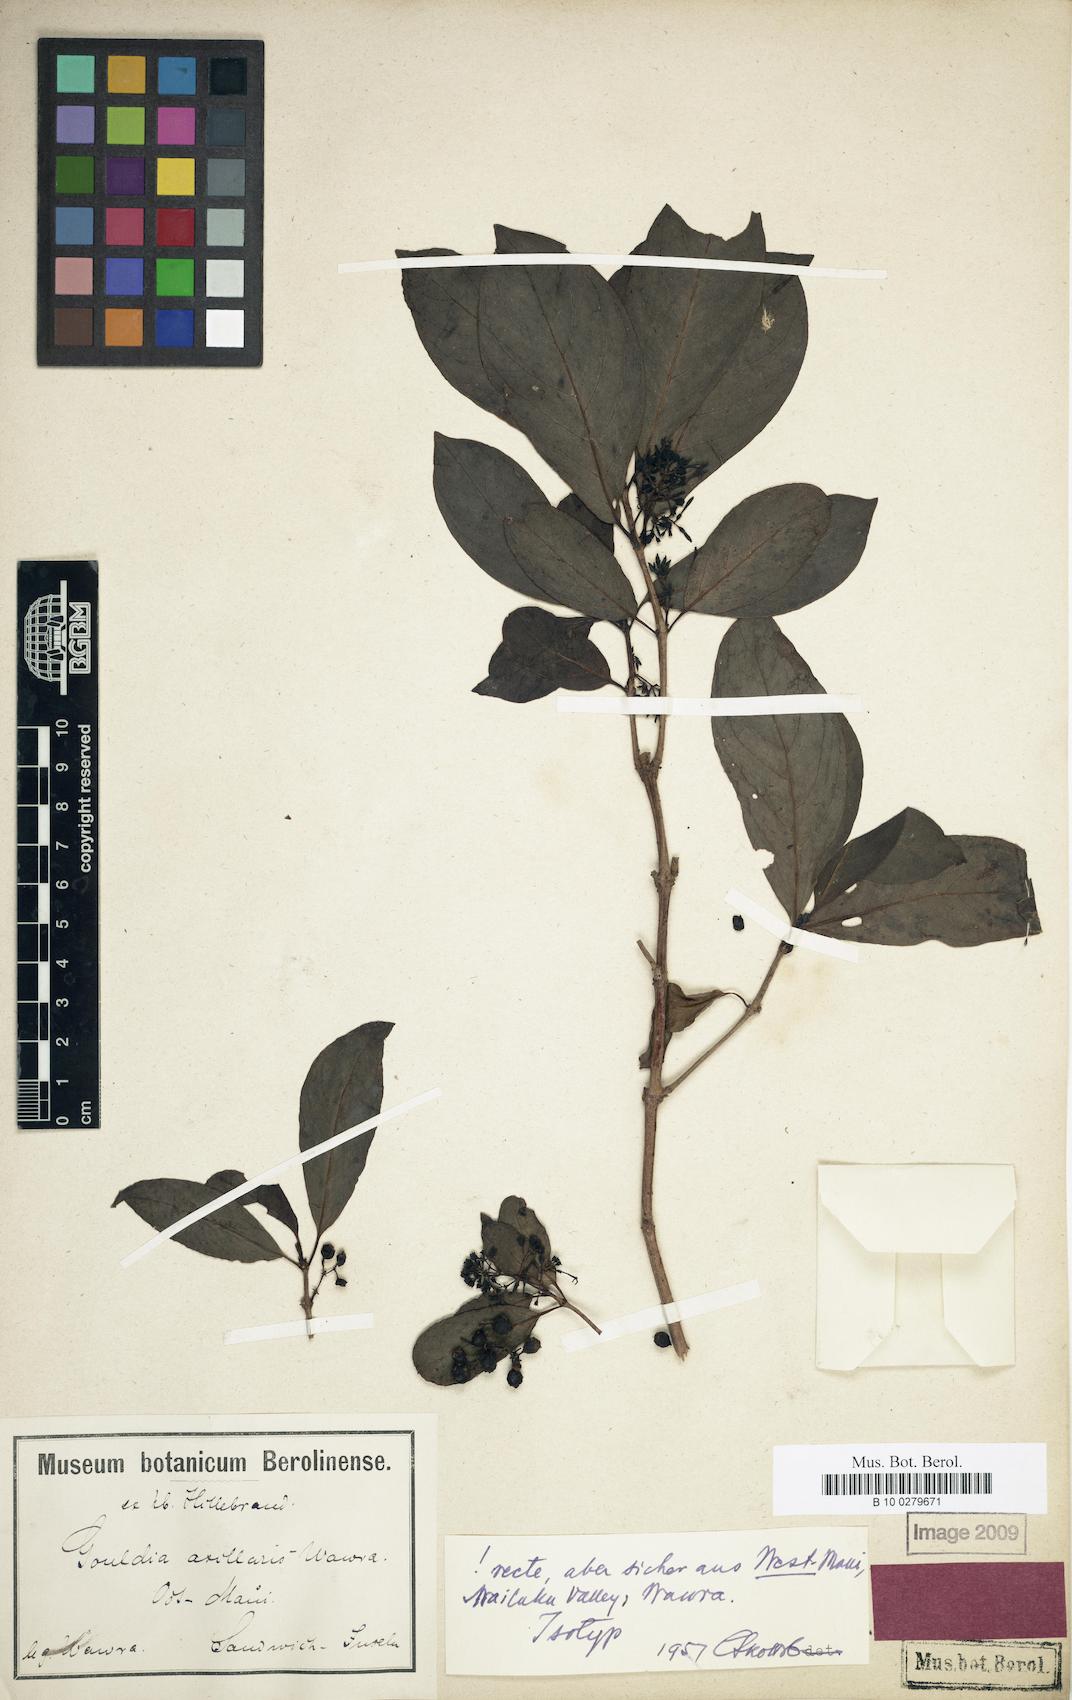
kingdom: Plantae
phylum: Tracheophyta
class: Magnoliopsida
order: Gentianales
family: Rubiaceae
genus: Kadua
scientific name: Kadua axillaris
